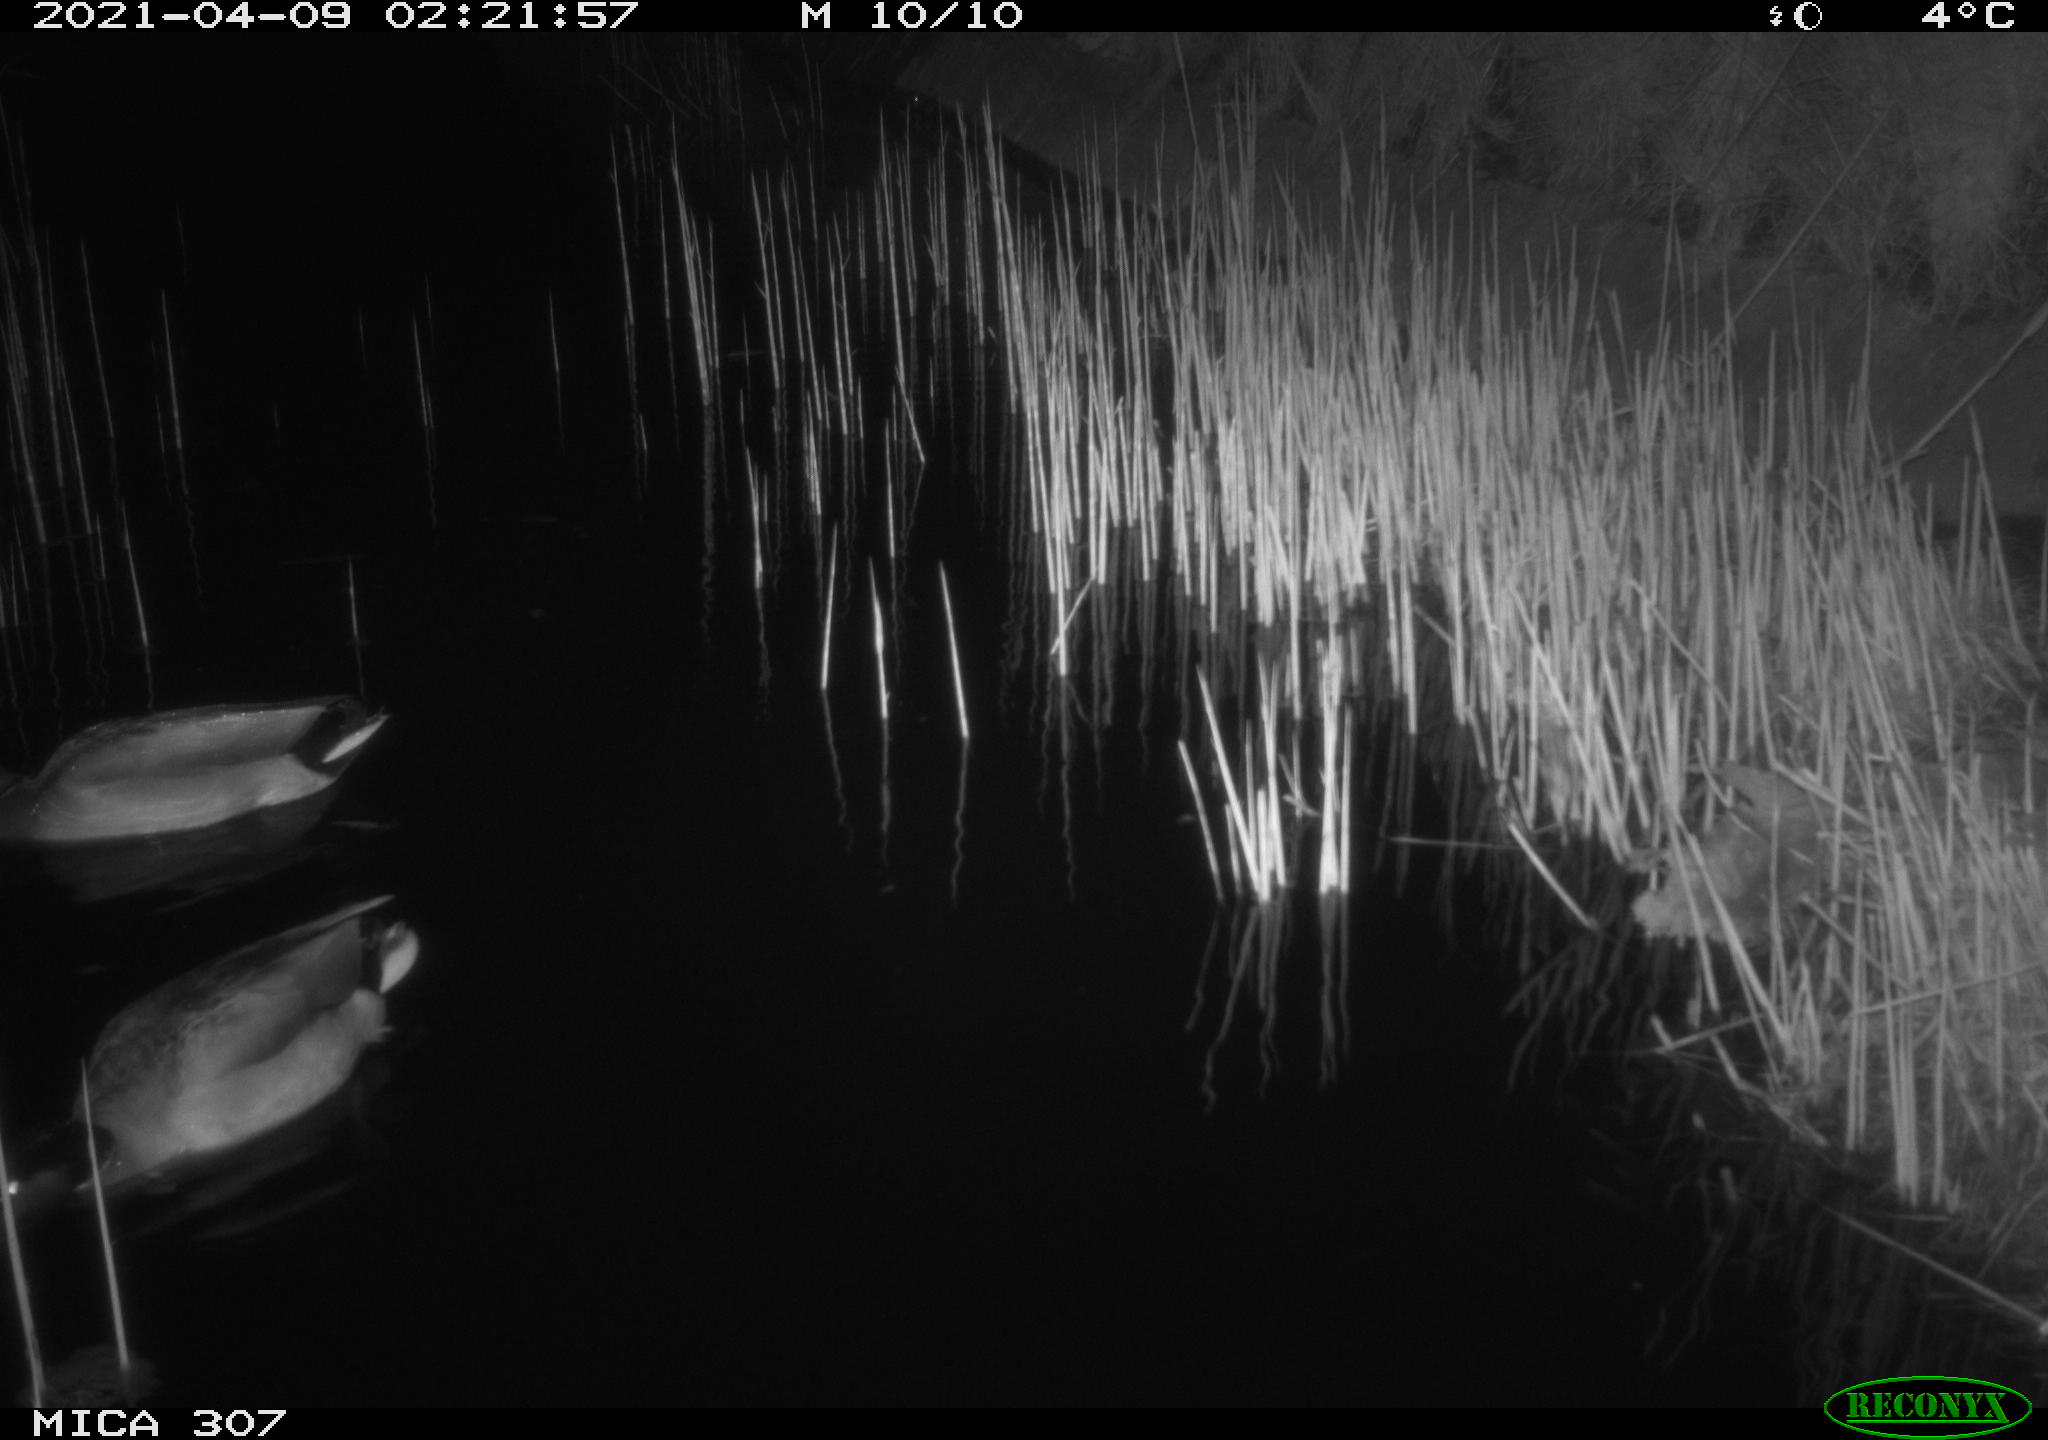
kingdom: Animalia
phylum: Chordata
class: Aves
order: Anseriformes
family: Anatidae
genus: Anas
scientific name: Anas platyrhynchos
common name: Mallard
